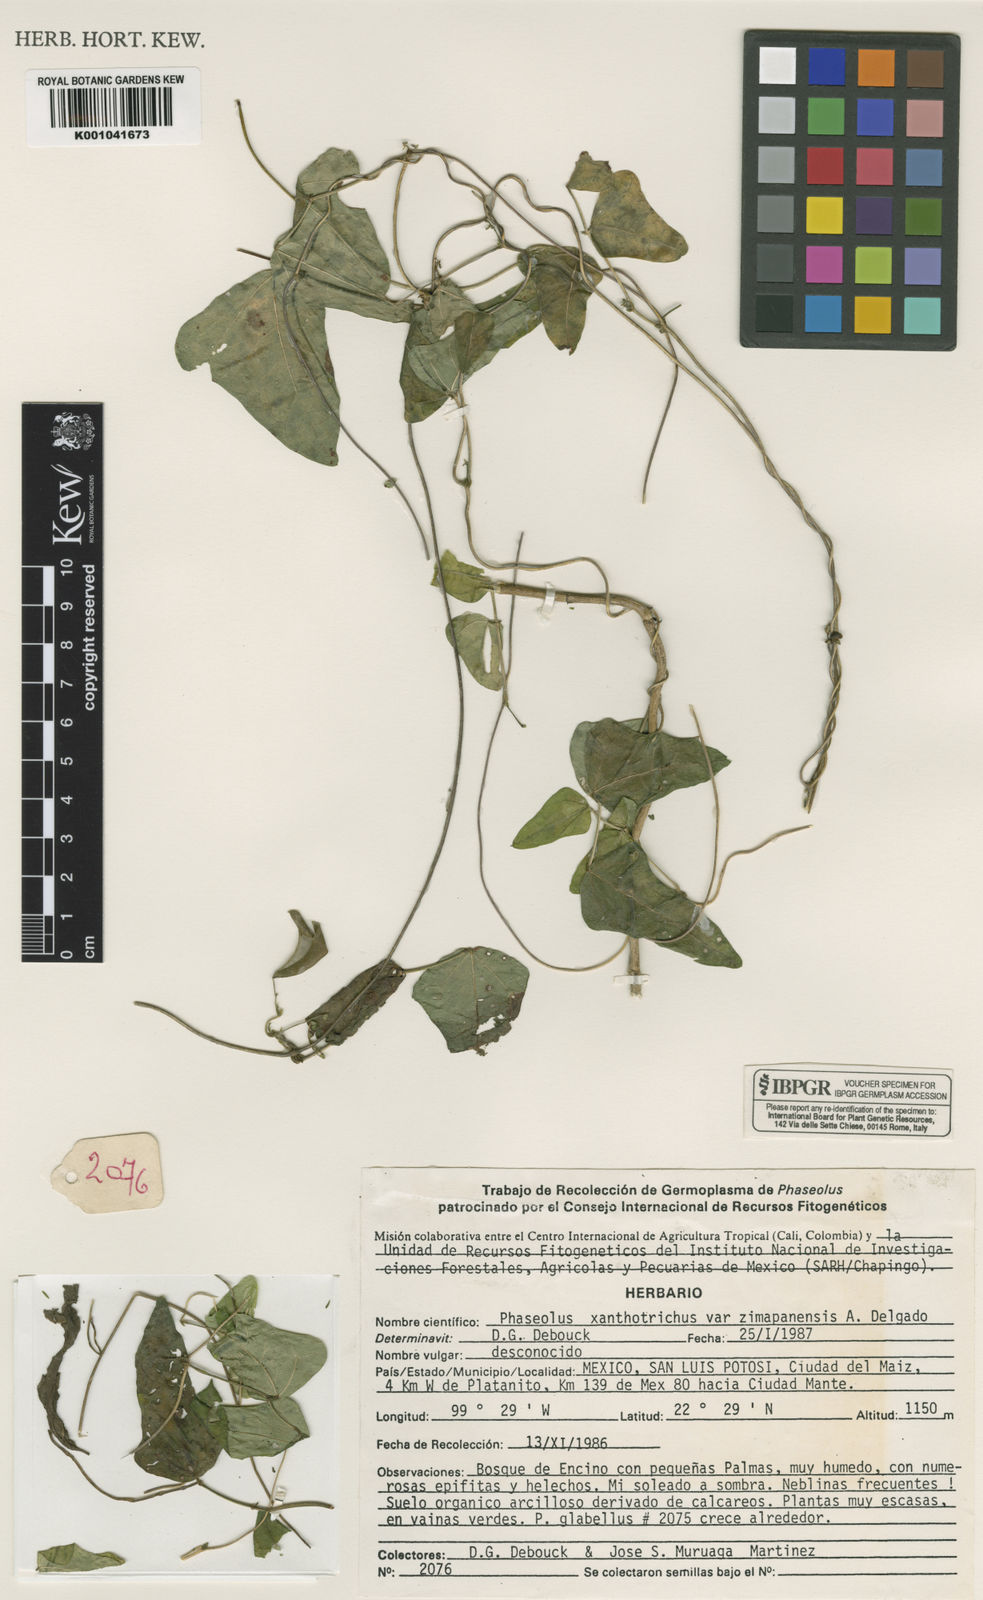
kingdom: Plantae
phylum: Tracheophyta
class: Magnoliopsida
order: Fabales
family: Fabaceae
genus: Phaseolus
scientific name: Phaseolus xanthotrichus
